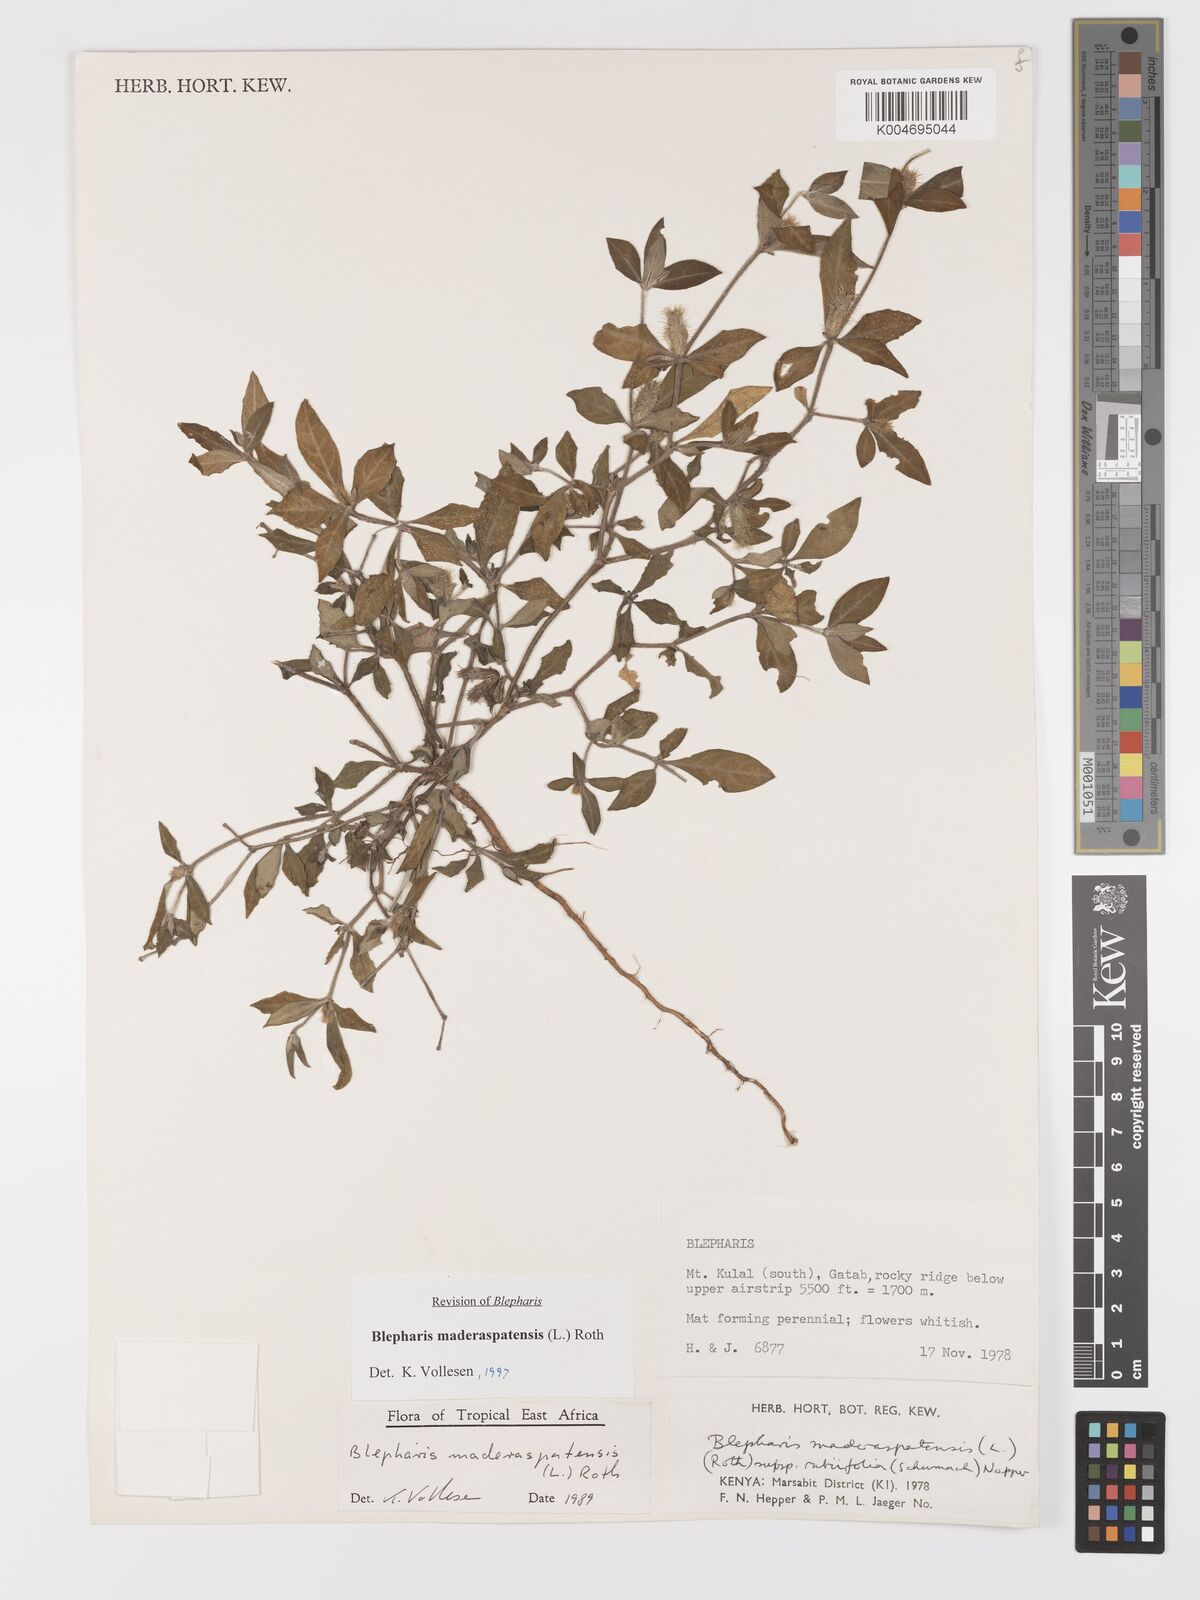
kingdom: Plantae
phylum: Tracheophyta
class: Magnoliopsida
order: Lamiales
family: Acanthaceae
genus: Blepharis
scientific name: Blepharis maderaspatensis
